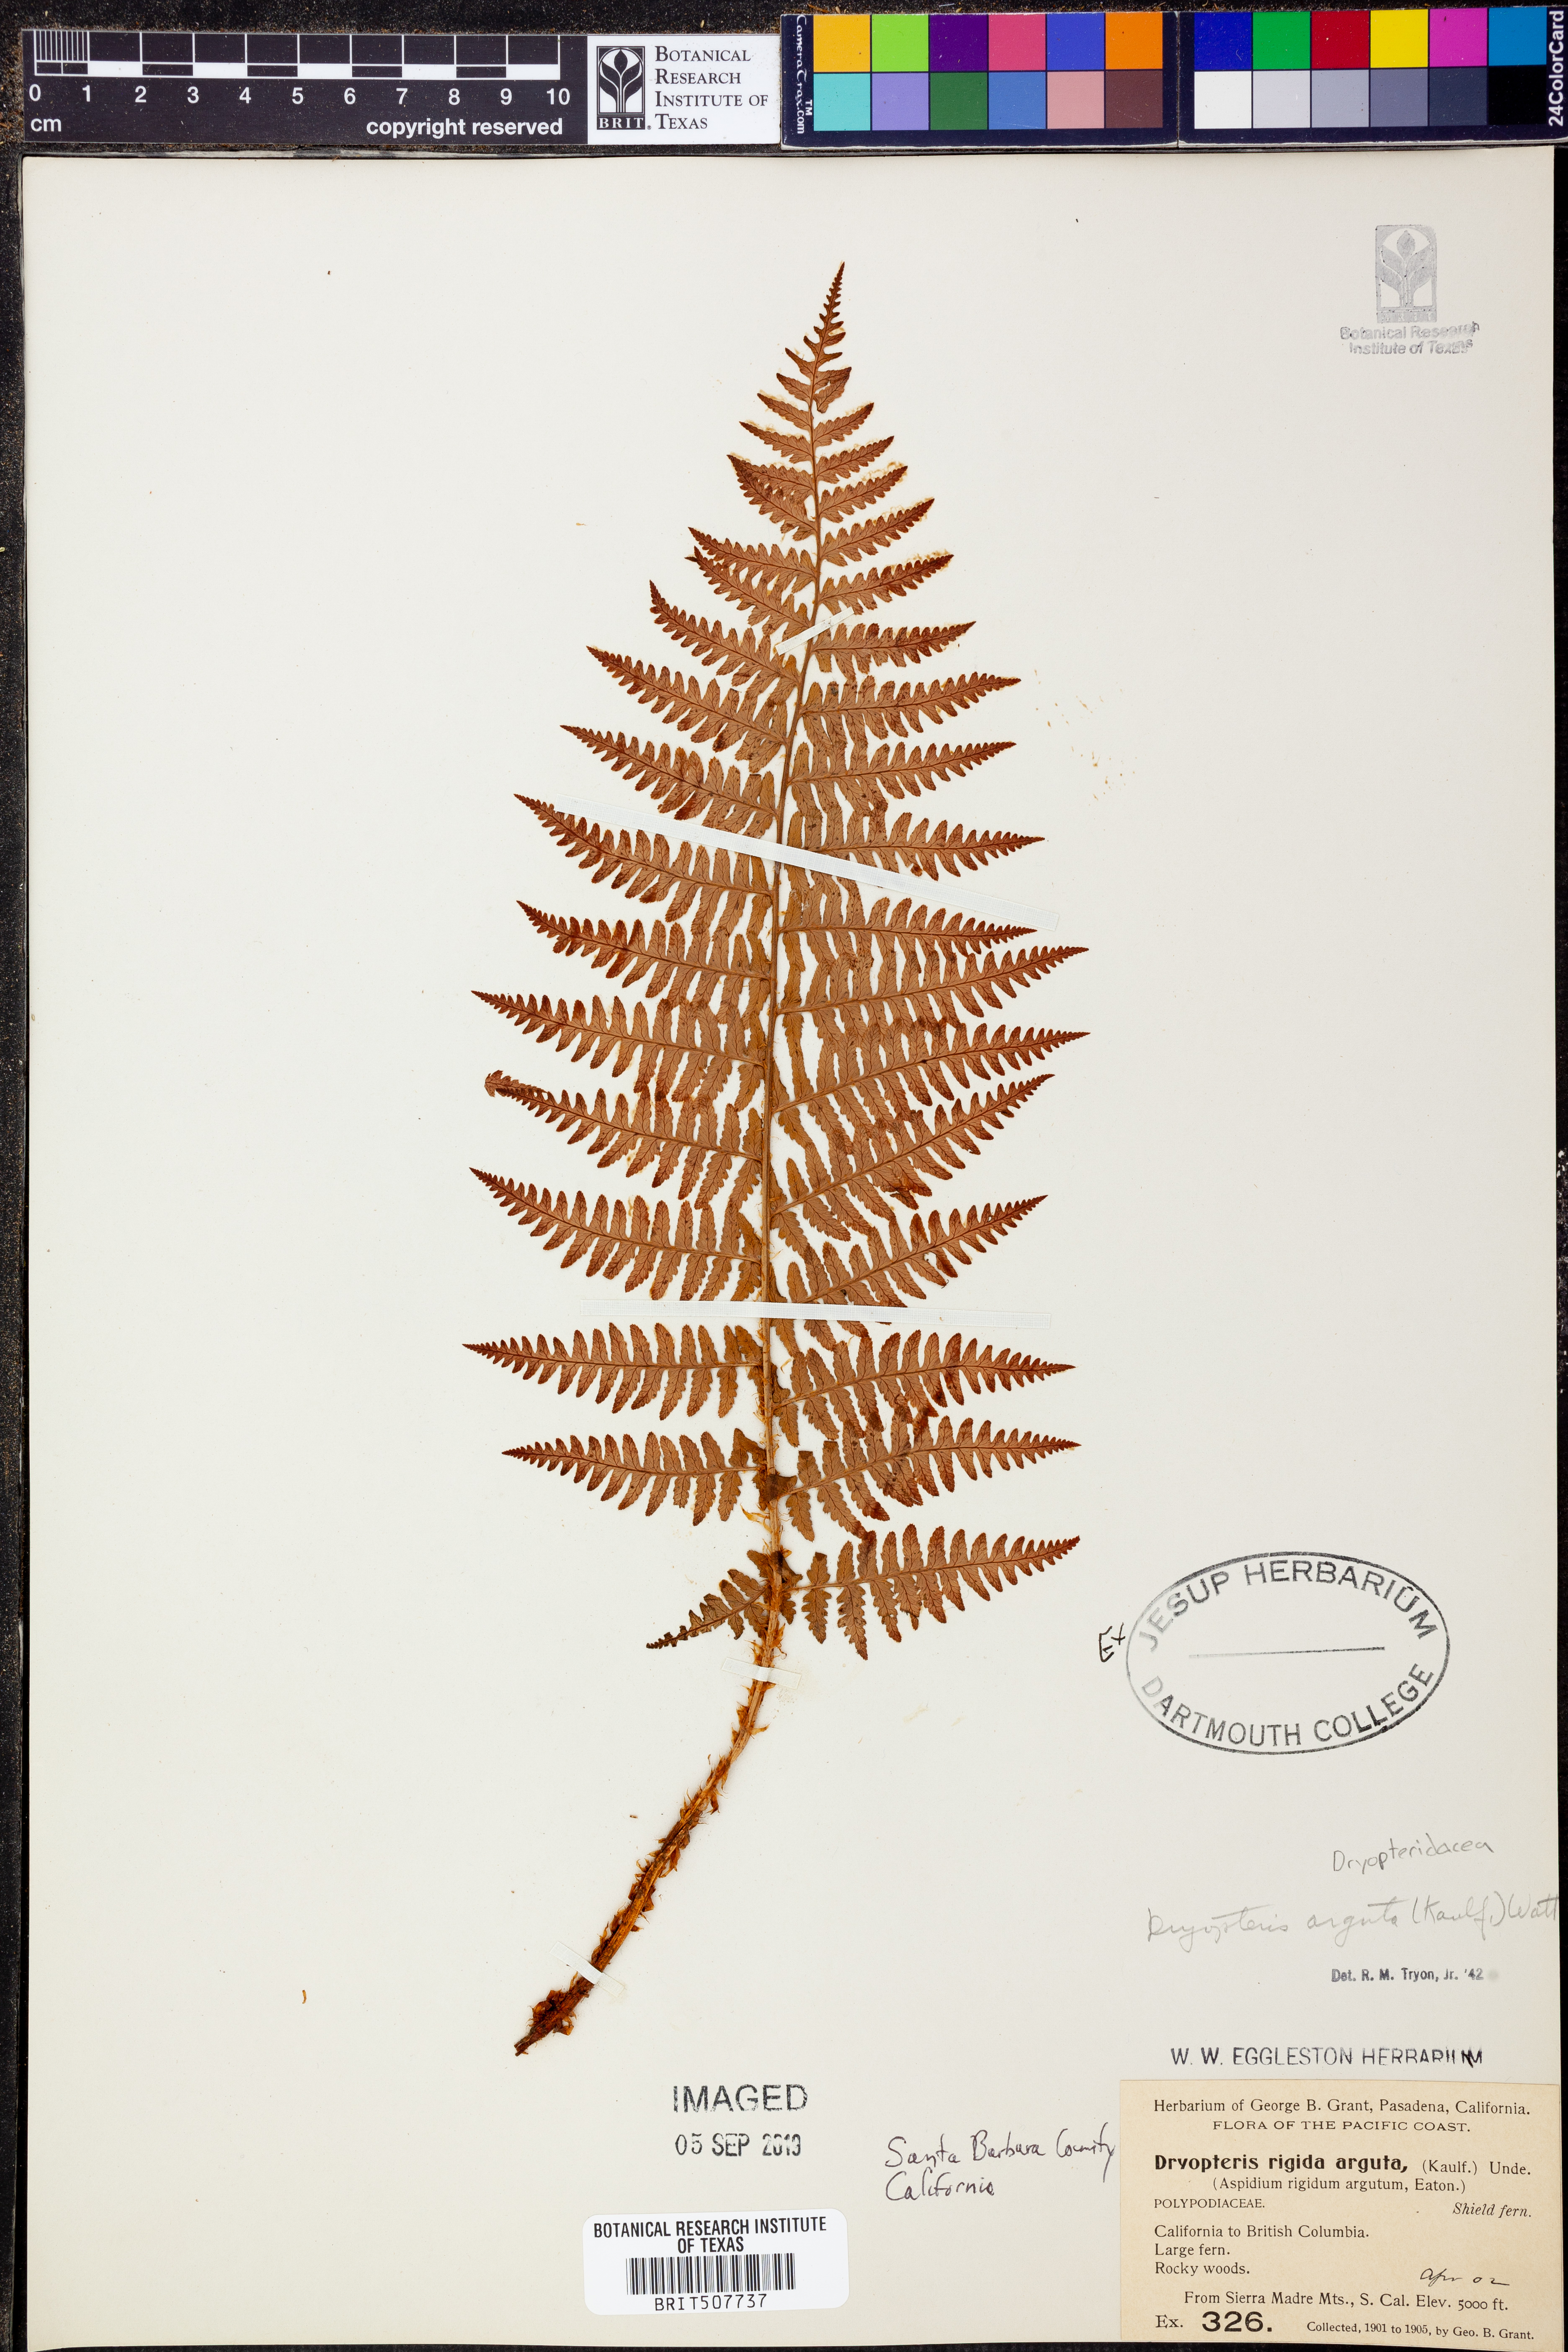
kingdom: Plantae
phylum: Tracheophyta
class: Polypodiopsida
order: Polypodiales
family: Dryopteridaceae
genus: Dryopteris
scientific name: Dryopteris arguta
